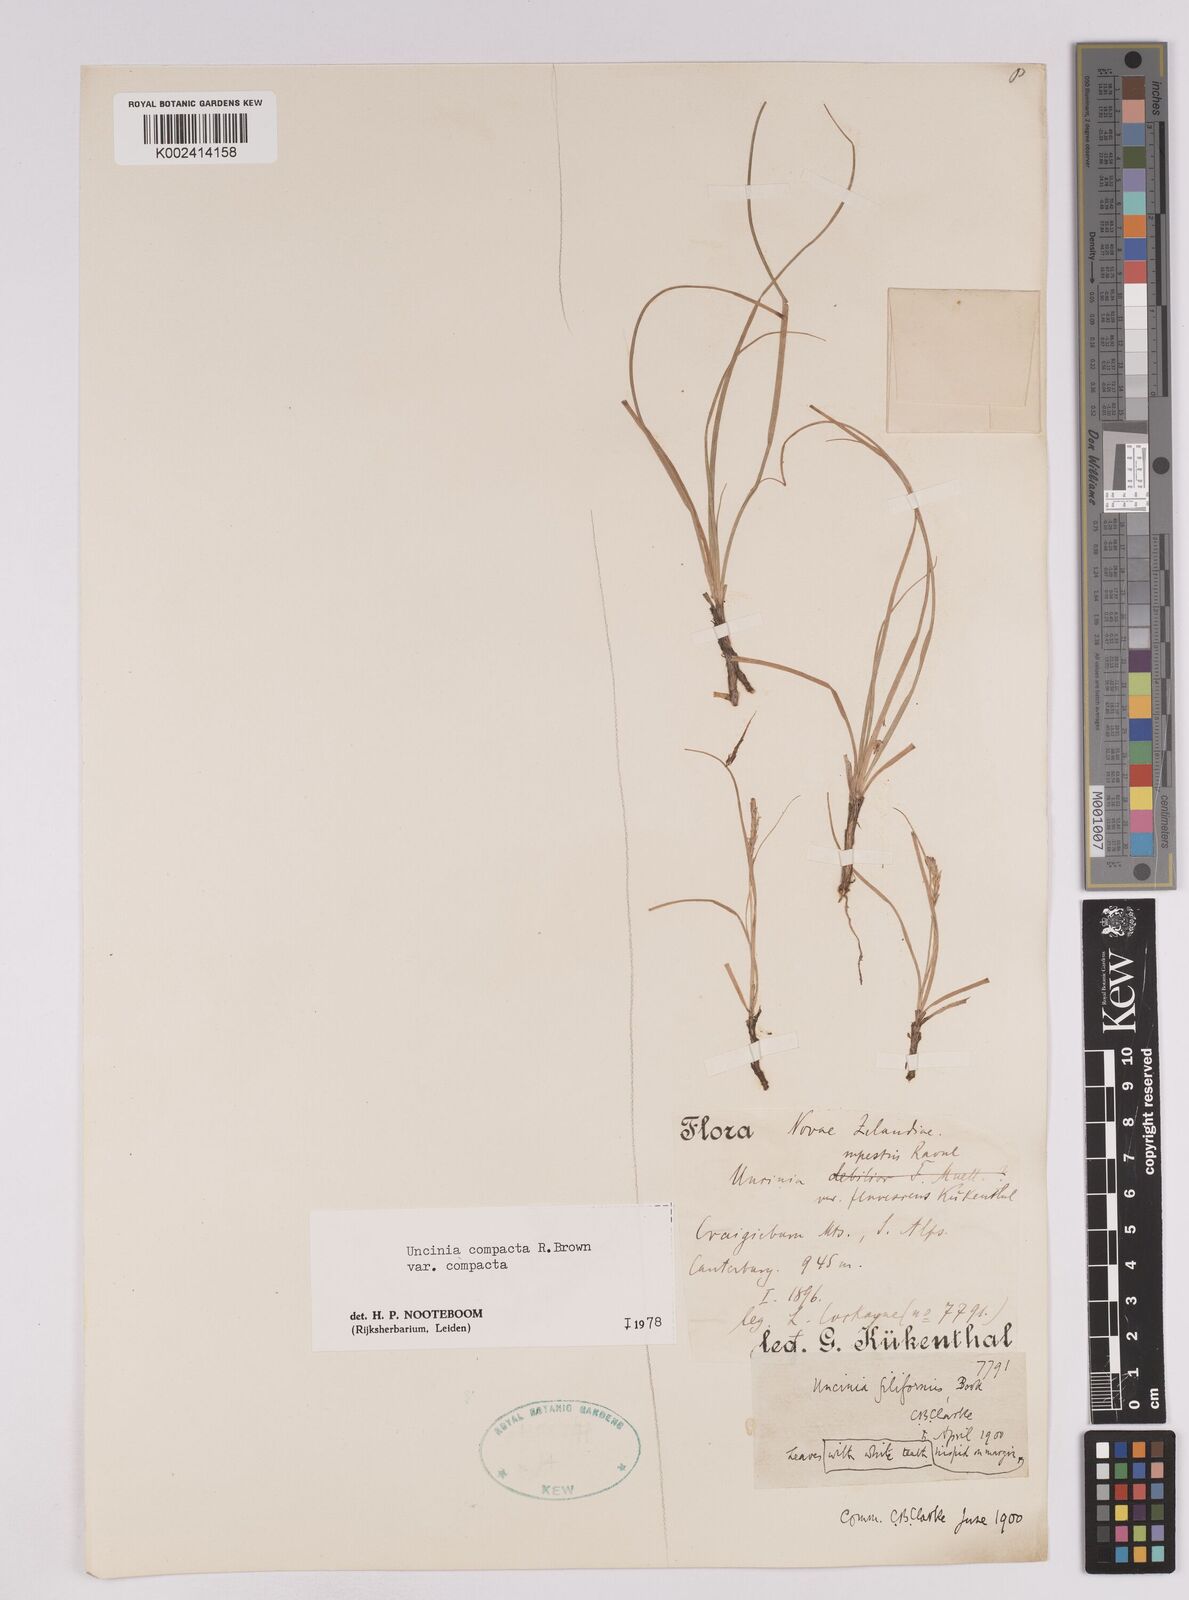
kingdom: Plantae
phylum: Tracheophyta
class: Liliopsida
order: Poales
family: Cyperaceae
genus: Carex
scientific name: Carex austrocompacta
